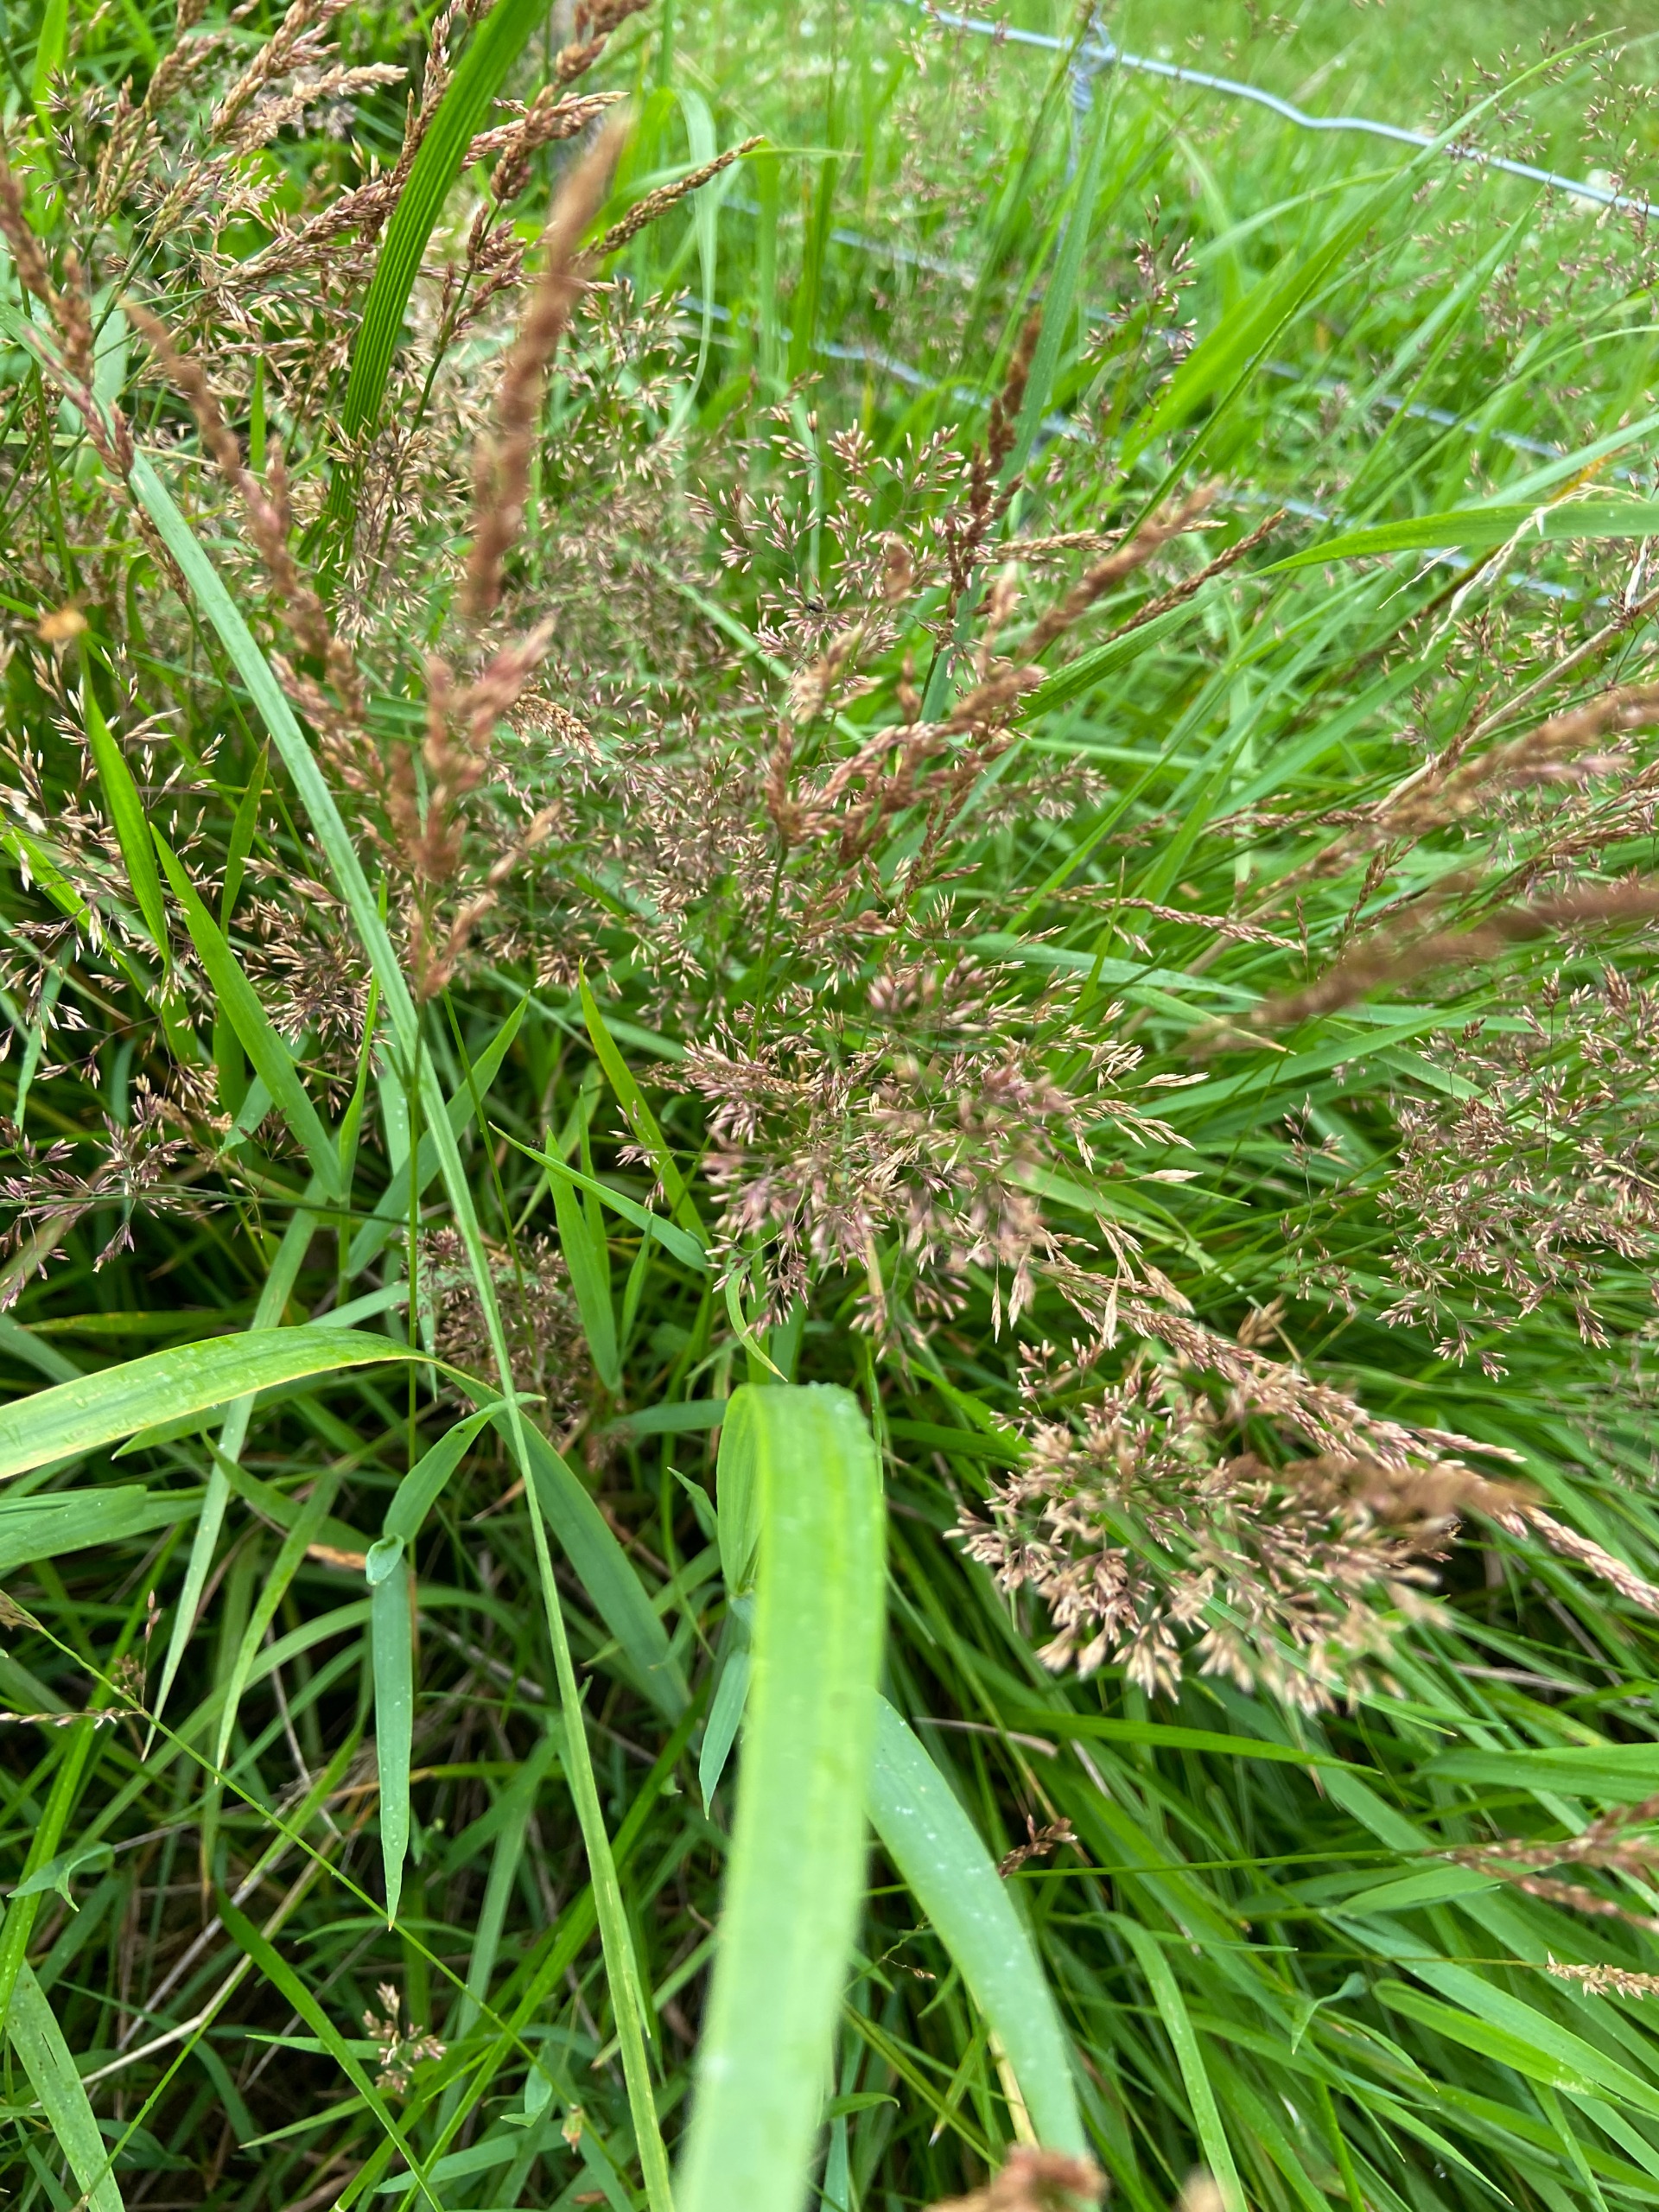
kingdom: Plantae
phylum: Tracheophyta
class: Liliopsida
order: Poales
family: Poaceae
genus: Agrostis
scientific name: Agrostis
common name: Hveneslægten
